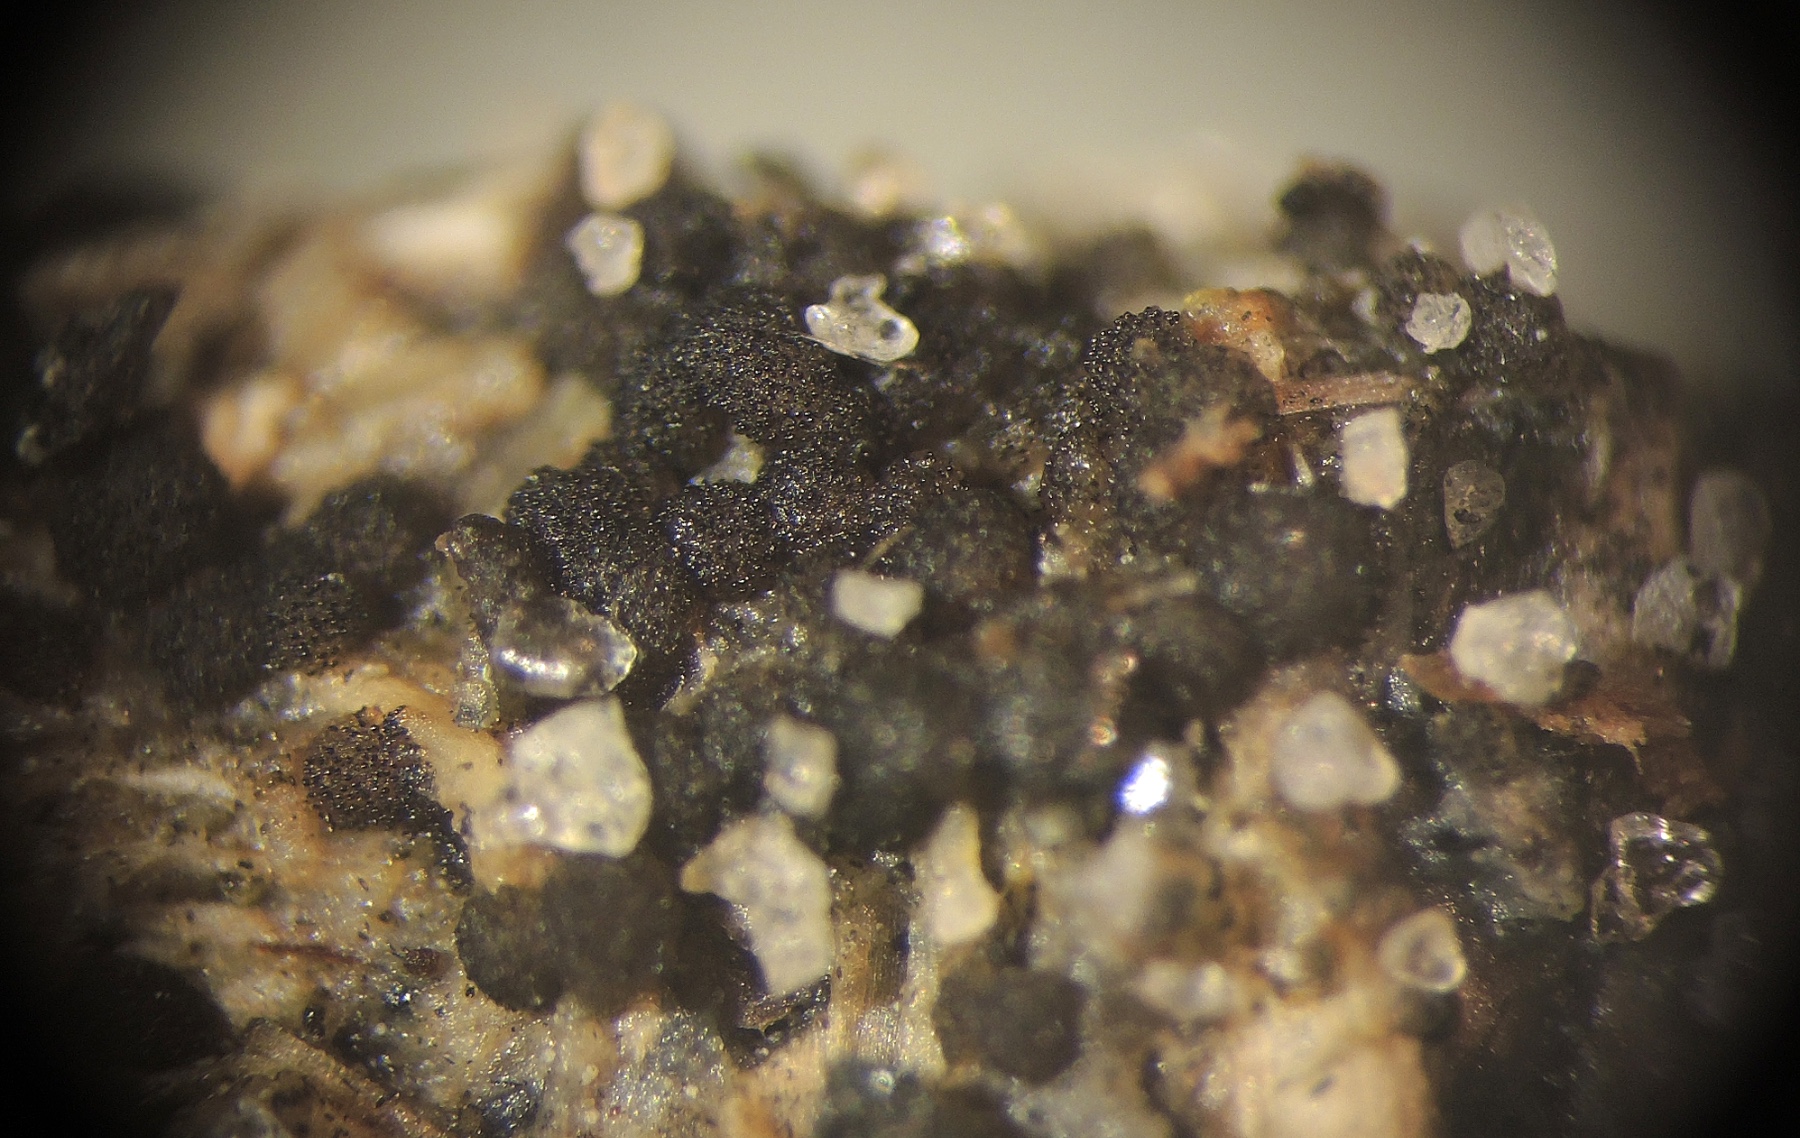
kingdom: Fungi
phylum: Ascomycota
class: Pezizomycetes
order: Pezizales
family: Ascobolaceae
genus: Saccobolus
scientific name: Saccobolus succineus
